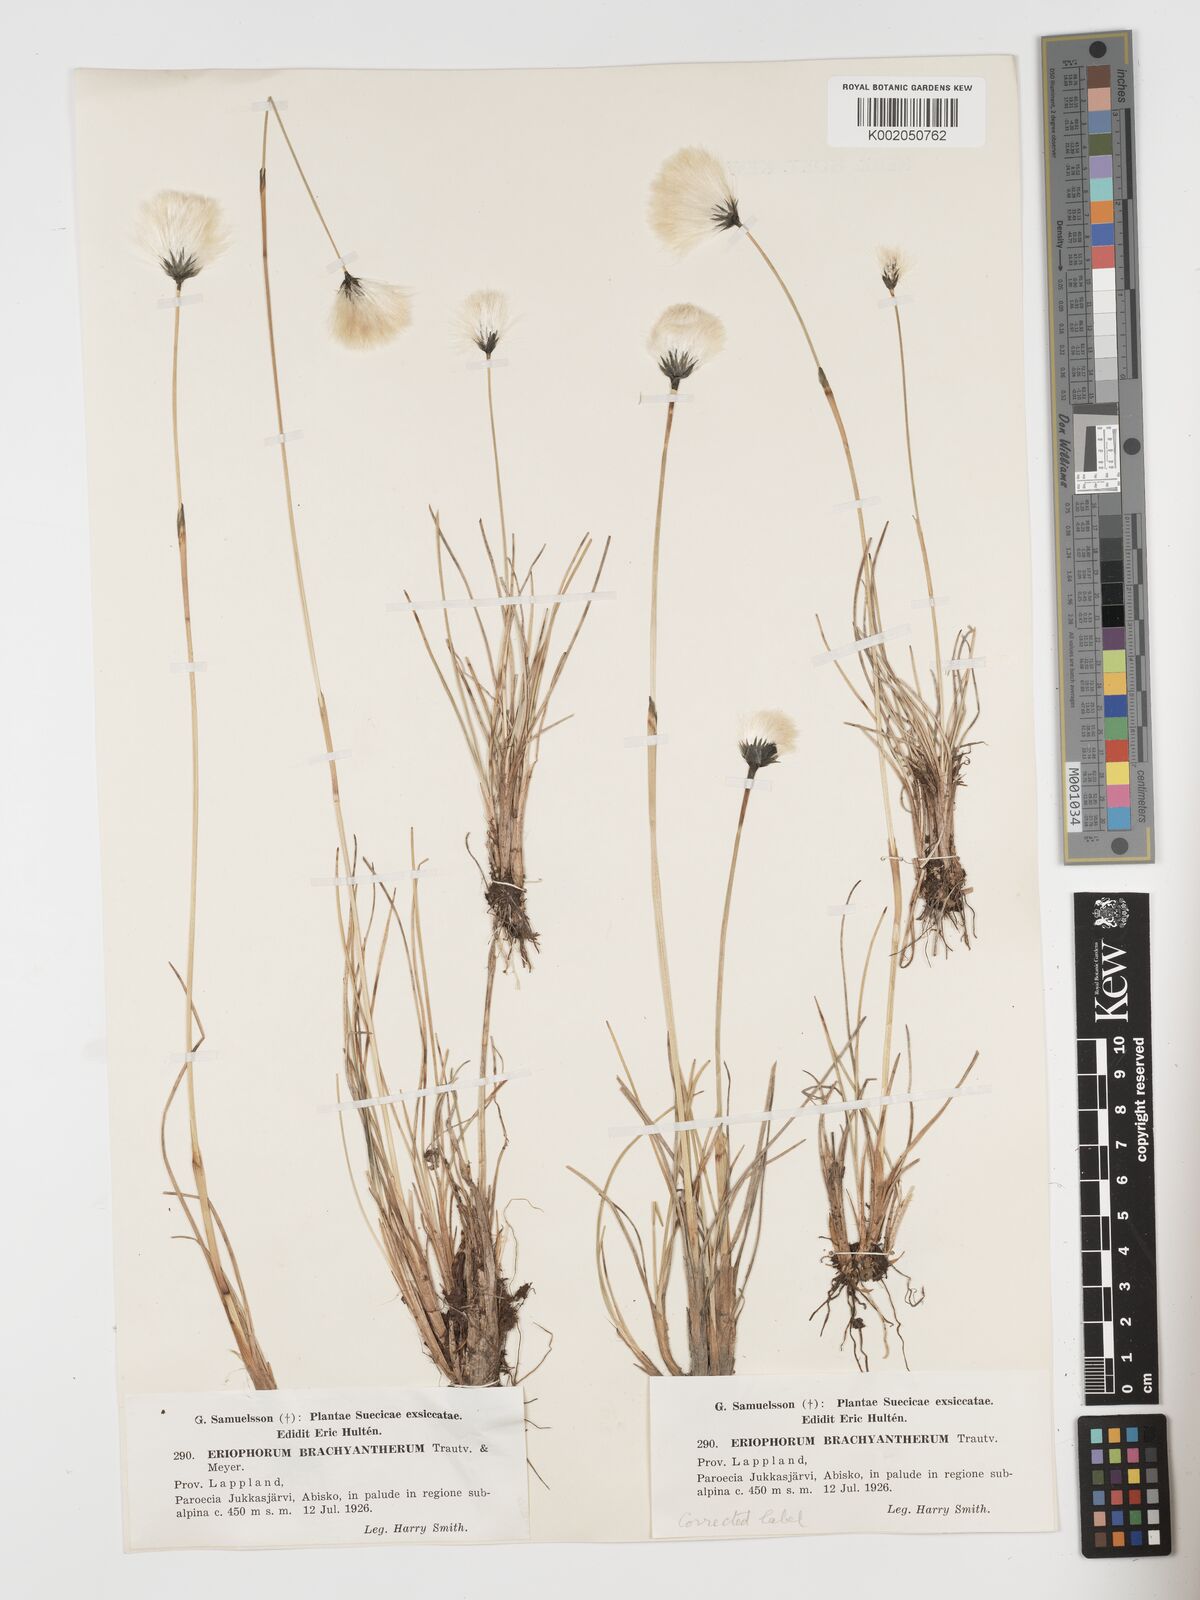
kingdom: Plantae
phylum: Tracheophyta
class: Liliopsida
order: Poales
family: Cyperaceae
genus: Eriophorum
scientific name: Eriophorum brachyantherum
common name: Closed-sheathed cottongrass
